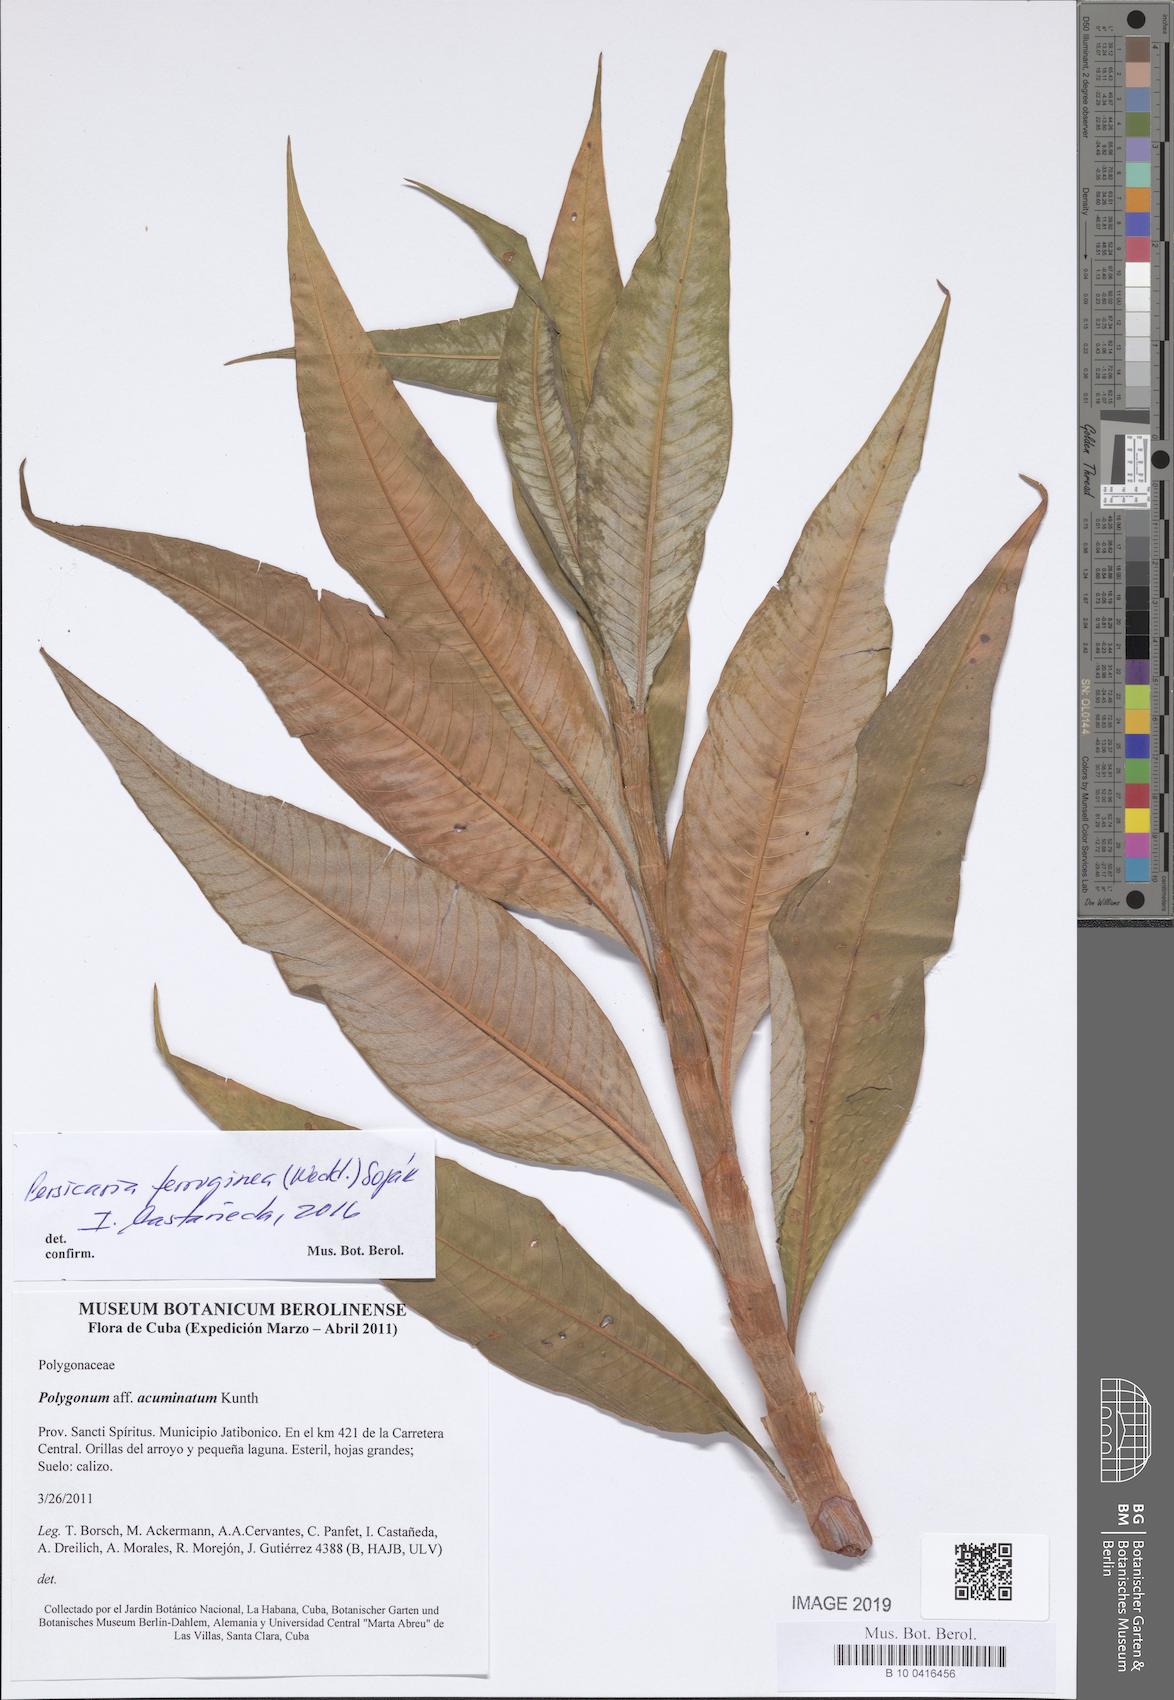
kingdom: Plantae
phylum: Tracheophyta
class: Magnoliopsida
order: Caryophyllales
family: Polygonaceae
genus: Persicaria
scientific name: Persicaria ferruginea
